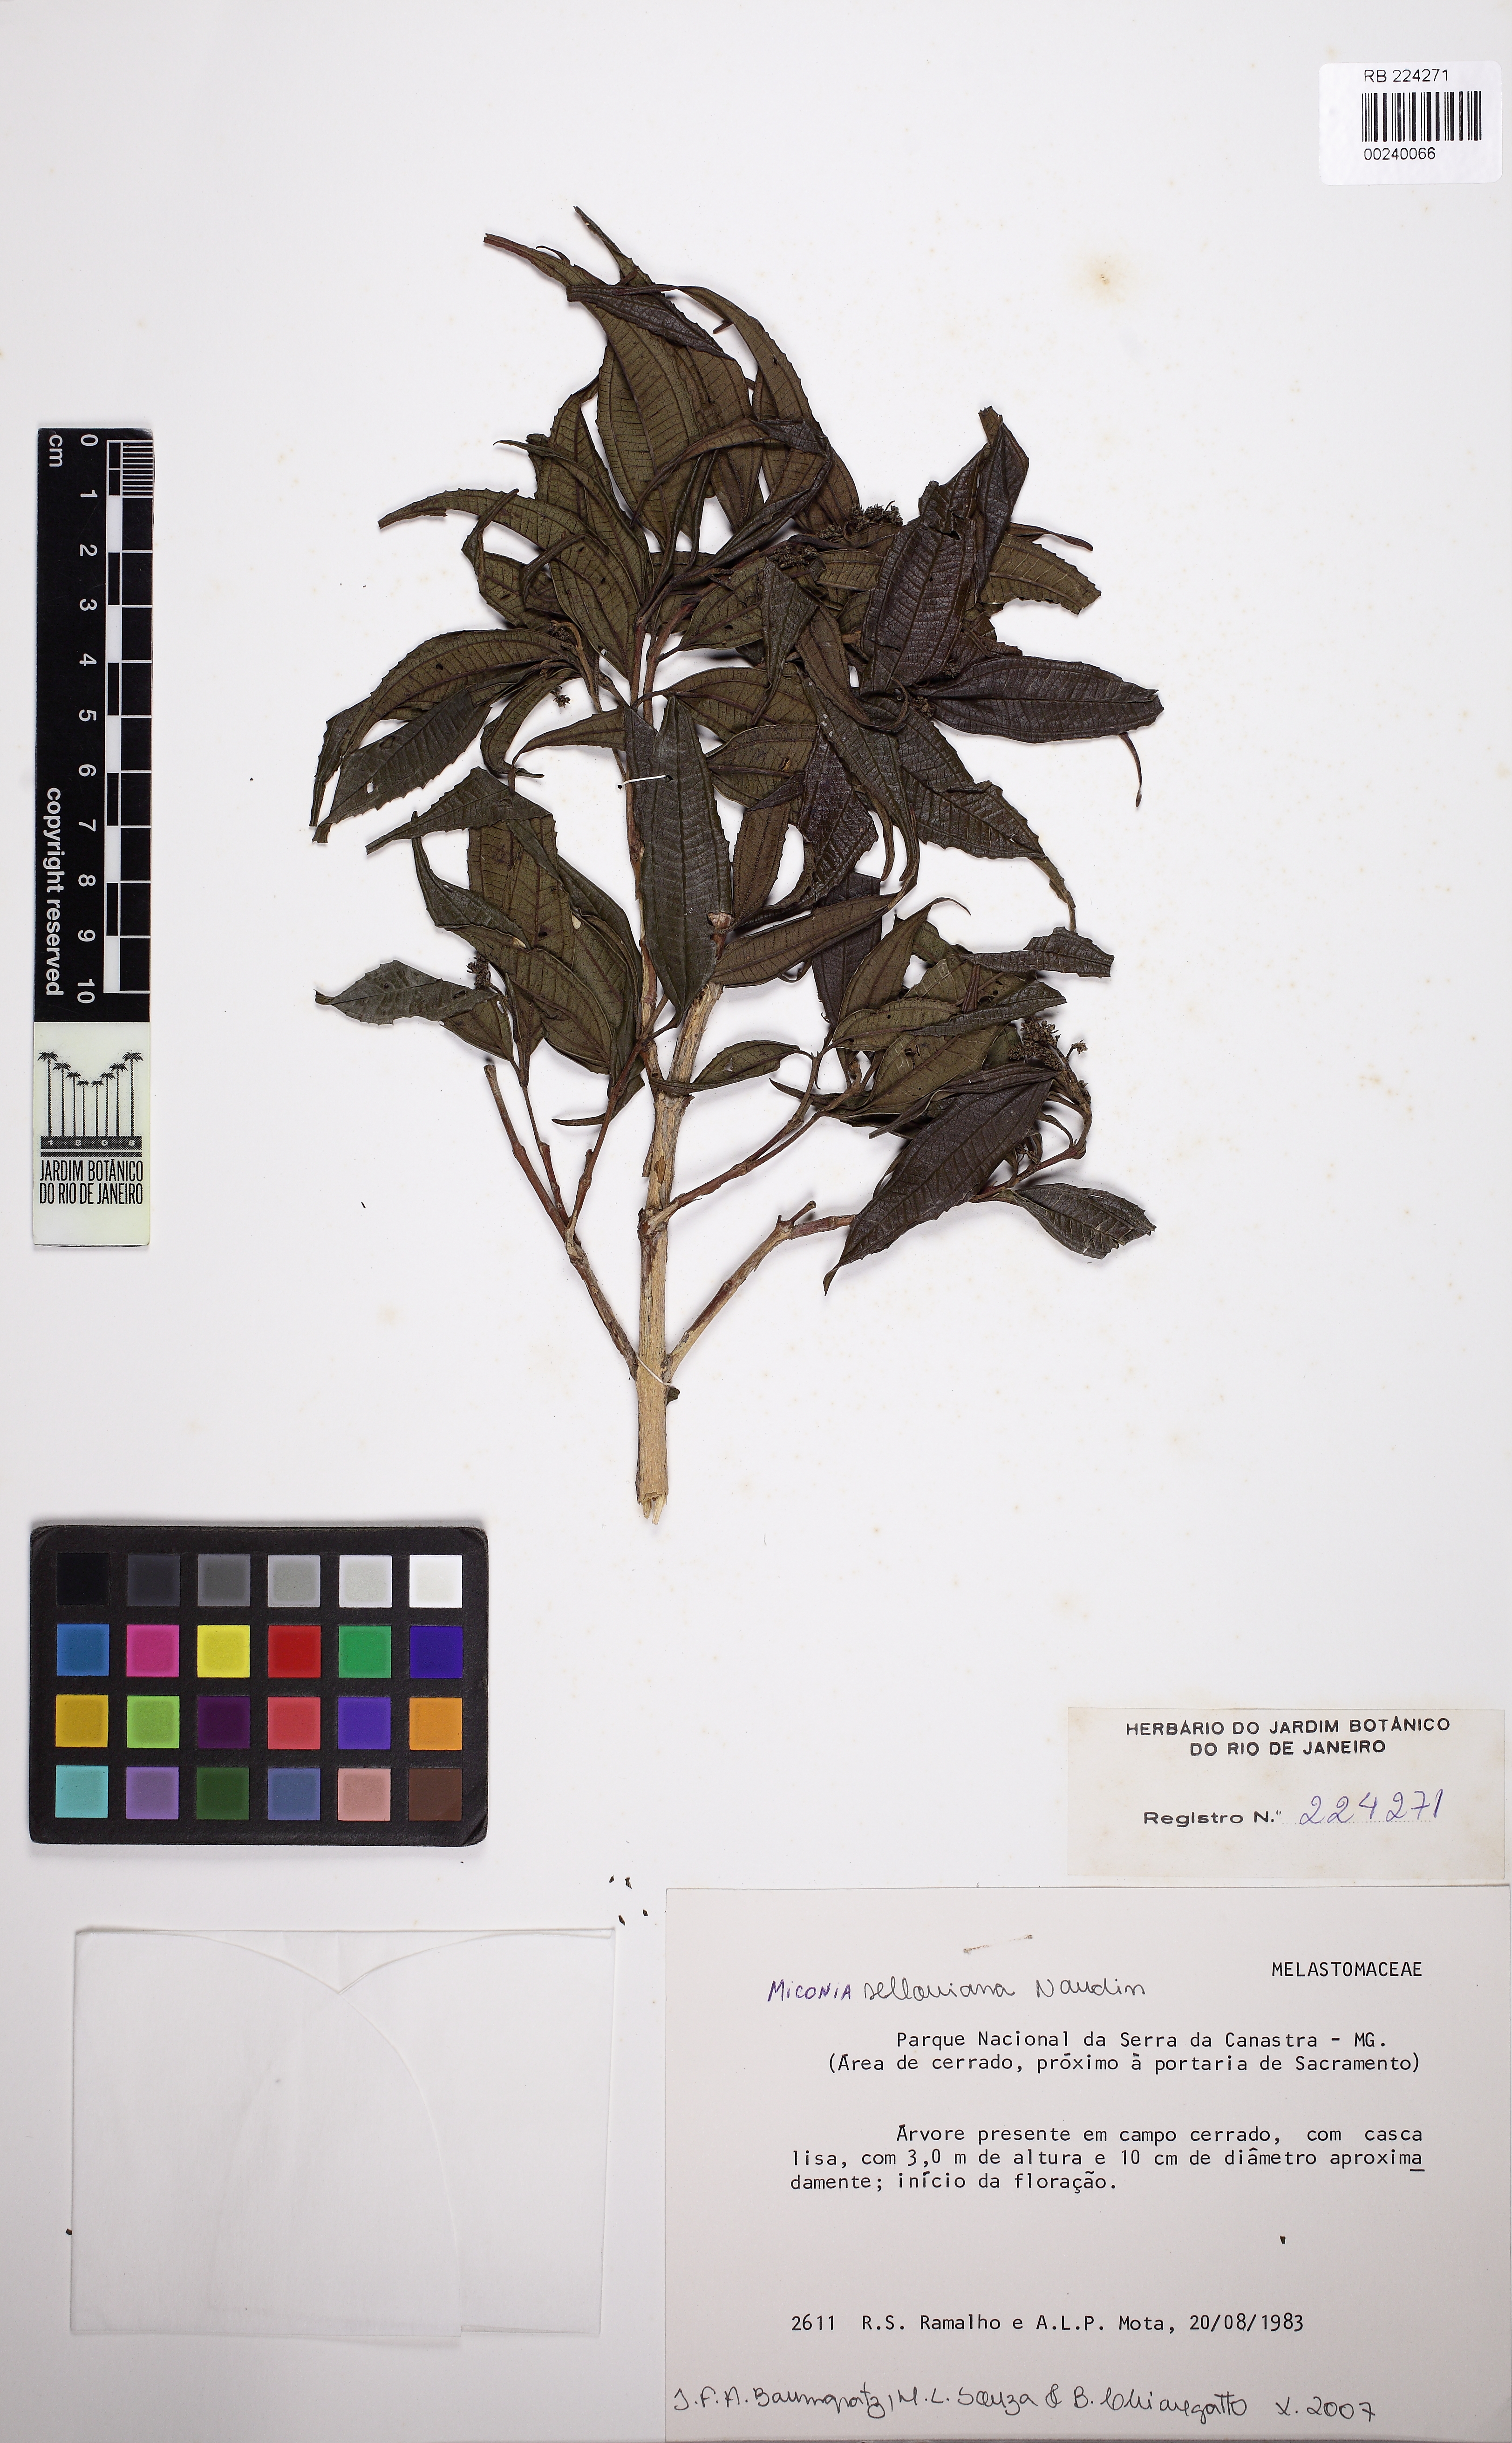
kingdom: Plantae
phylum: Tracheophyta
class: Magnoliopsida
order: Myrtales
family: Melastomataceae
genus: Miconia
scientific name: Miconia sellowiana
